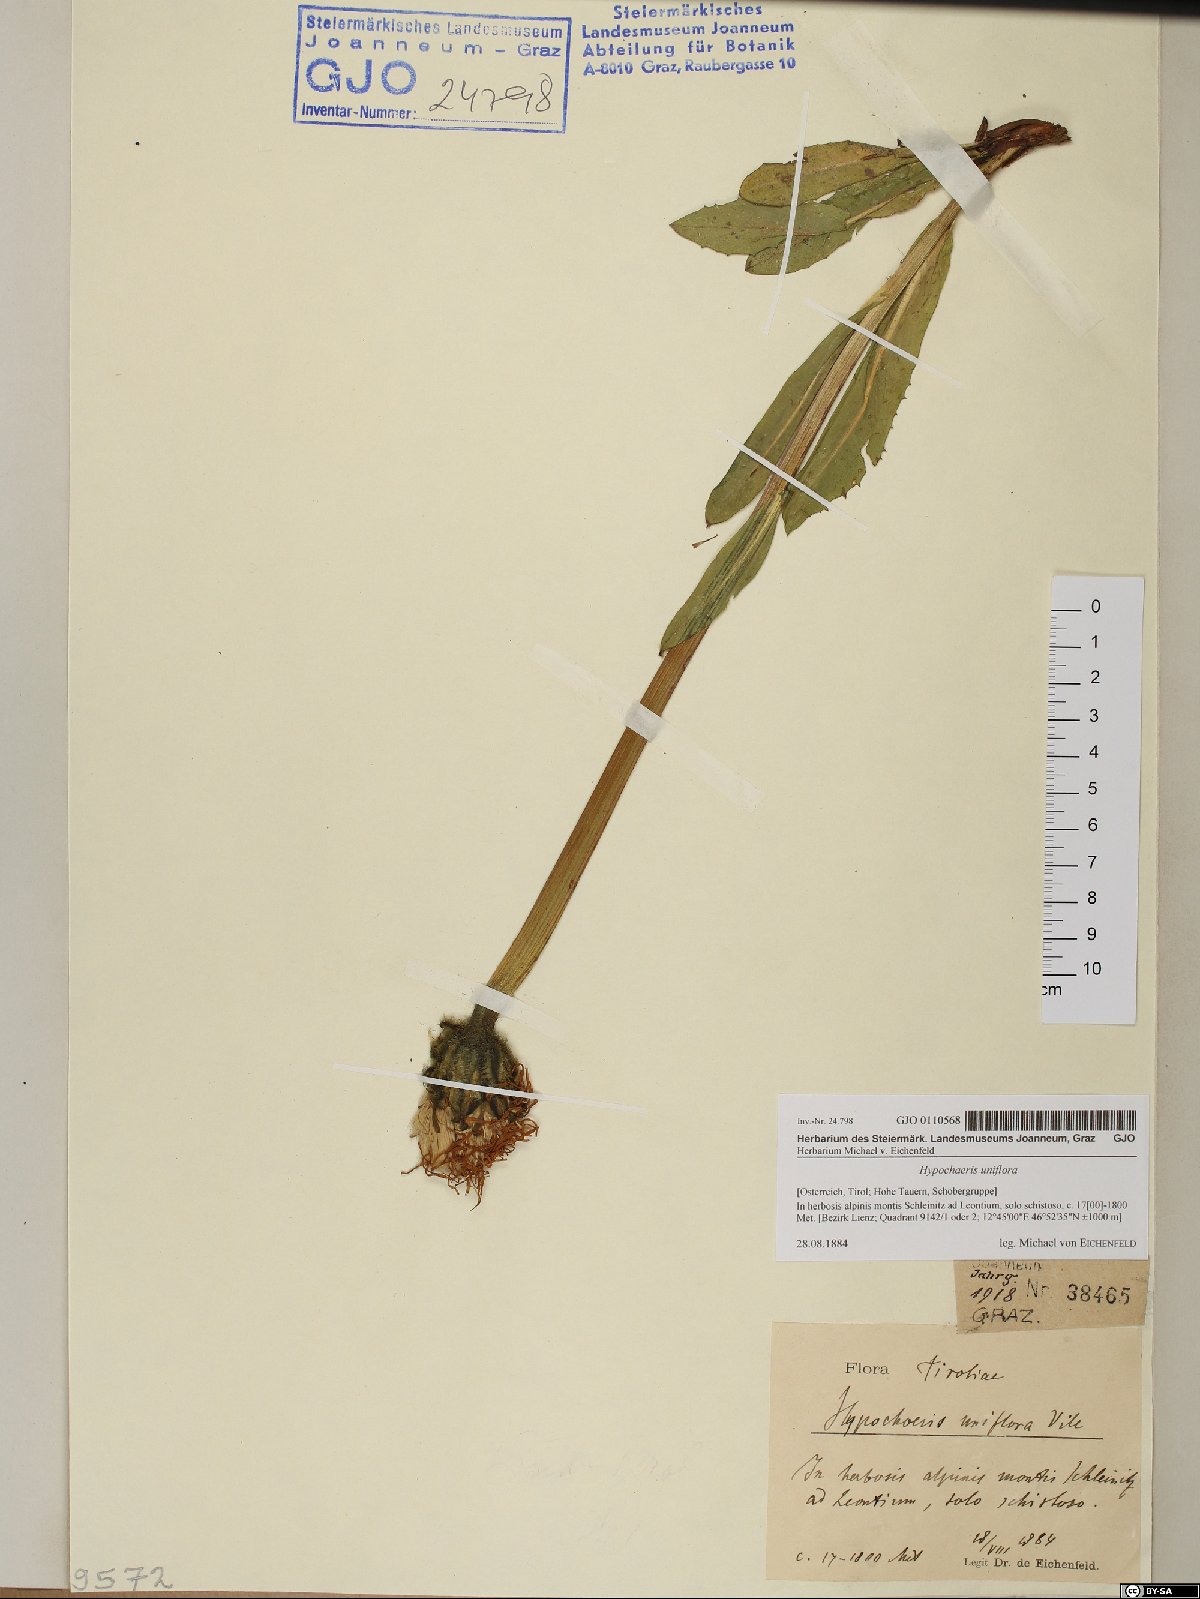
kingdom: Plantae
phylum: Tracheophyta
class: Magnoliopsida
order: Asterales
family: Asteraceae
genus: Trommsdorffia
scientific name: Trommsdorffia uniflora
